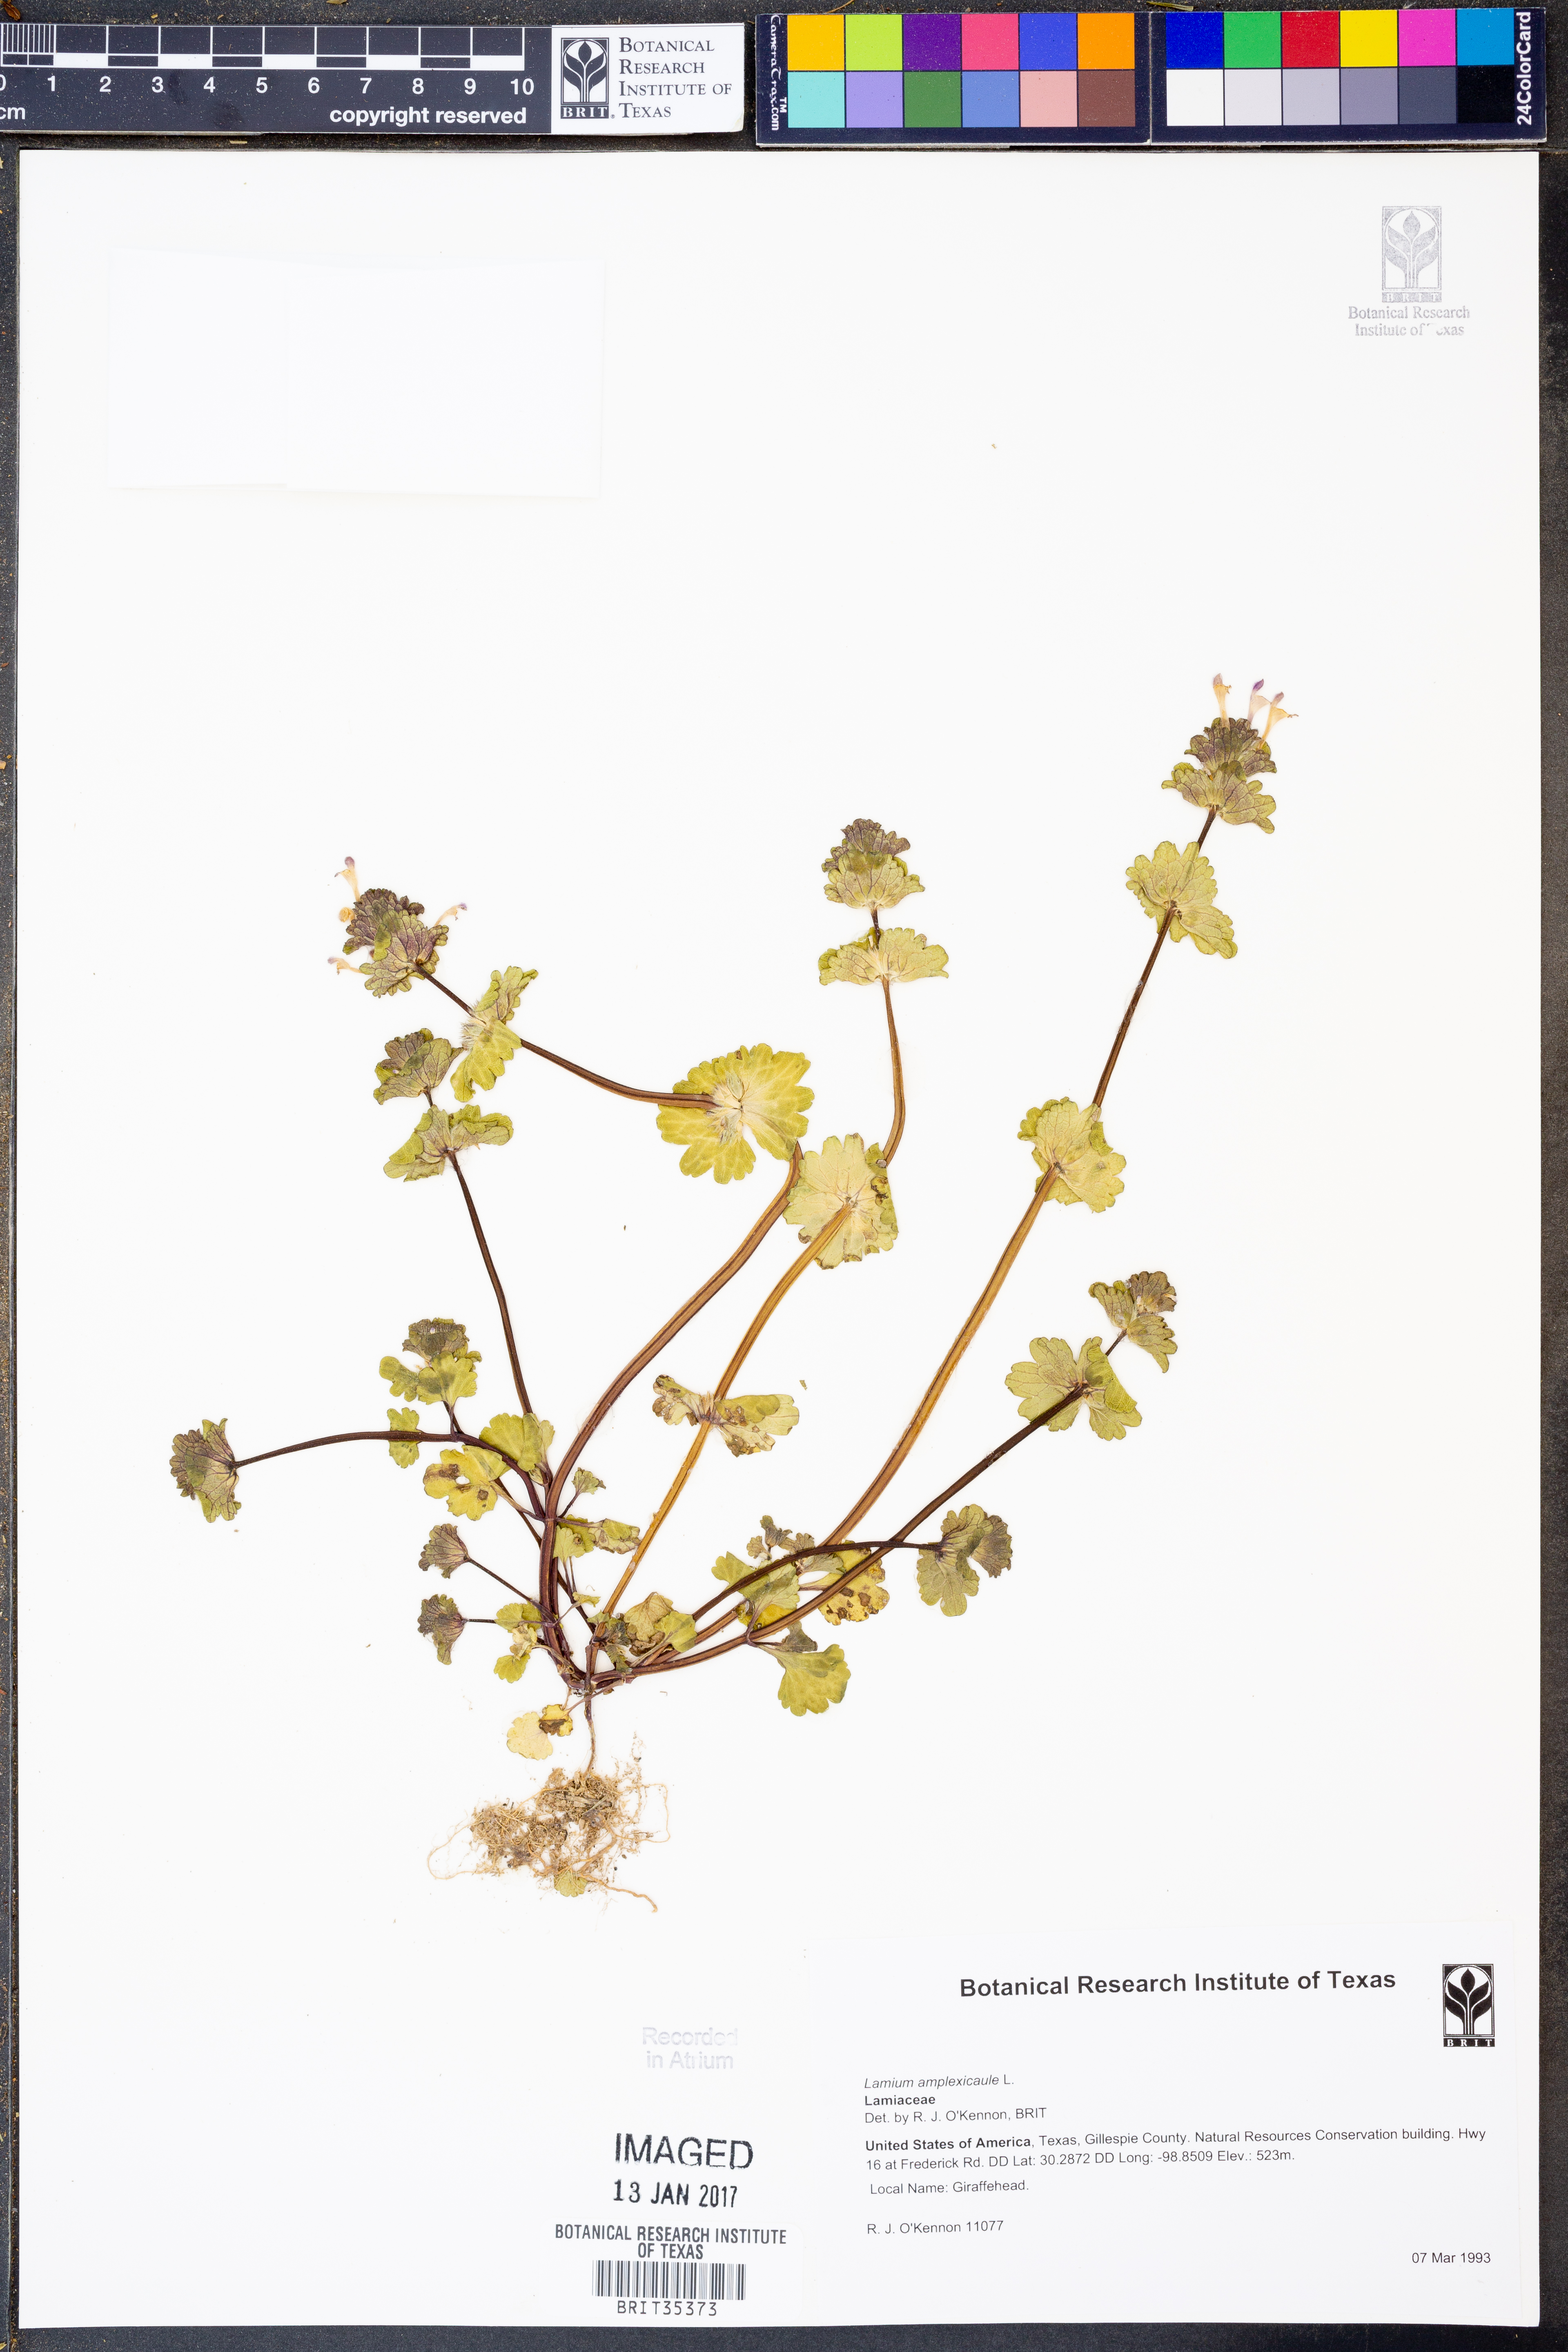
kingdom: Plantae
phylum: Tracheophyta
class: Magnoliopsida
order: Lamiales
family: Lamiaceae
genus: Lamium
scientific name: Lamium amplexicaule
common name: Henbit dead-nettle
